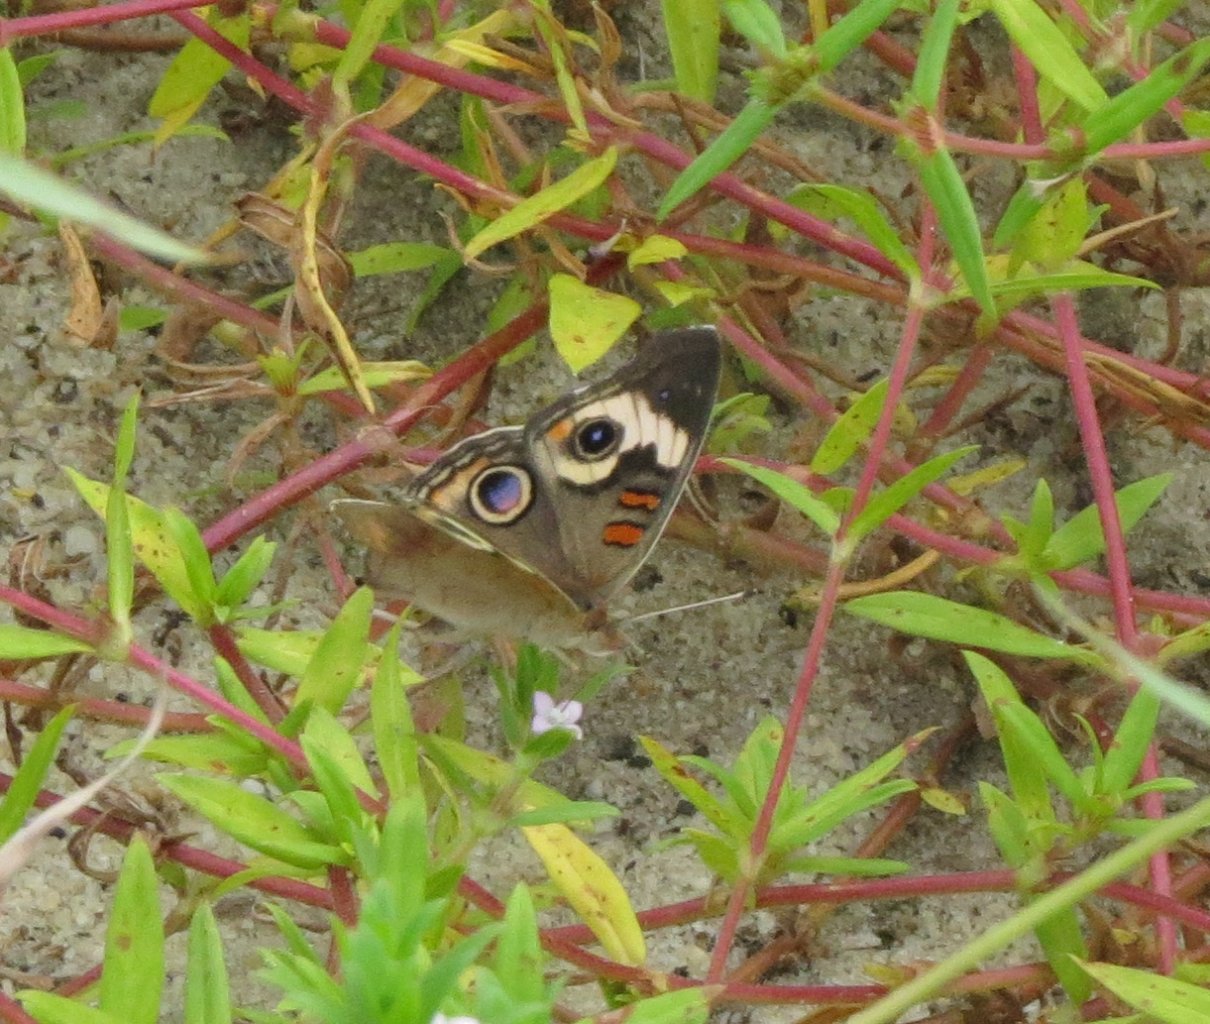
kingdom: Animalia
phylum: Arthropoda
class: Insecta
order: Lepidoptera
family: Nymphalidae
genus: Junonia
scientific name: Junonia coenia
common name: Common Buckeye
